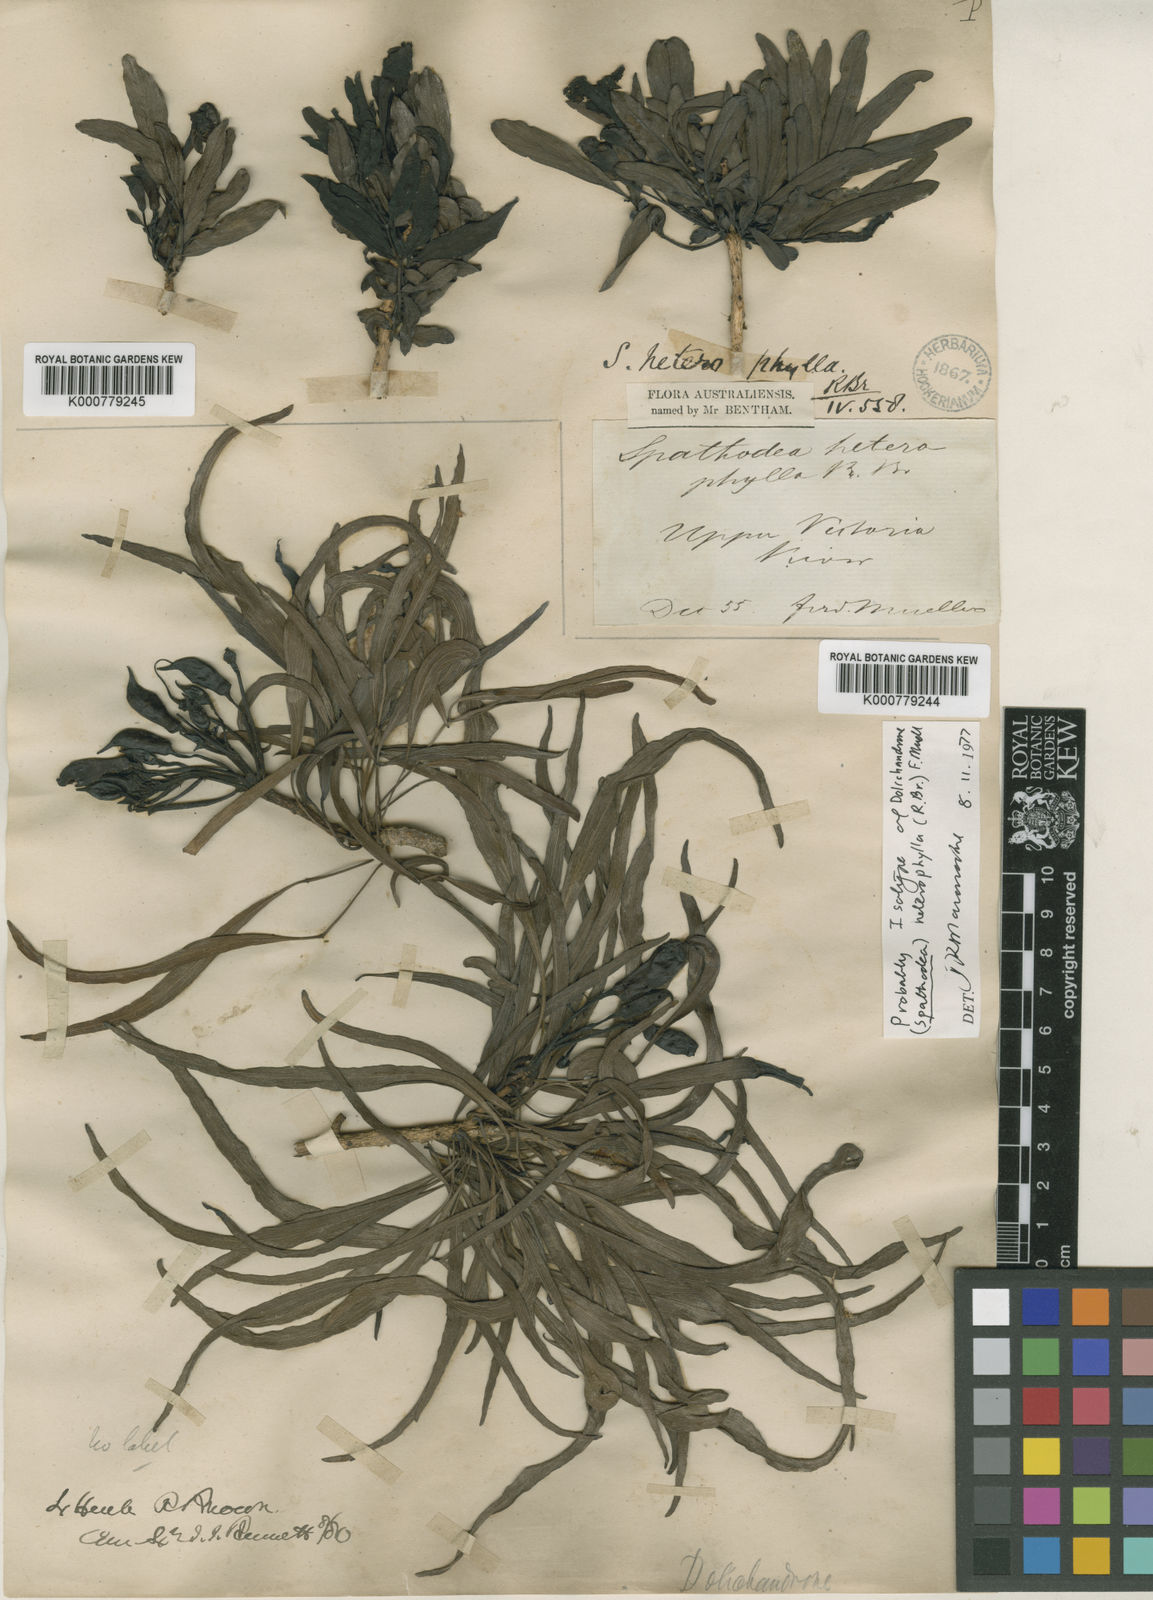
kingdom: Plantae
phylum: Tracheophyta
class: Magnoliopsida
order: Lamiales
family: Bignoniaceae
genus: Dolichandrone
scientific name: Dolichandrone heterophylla
